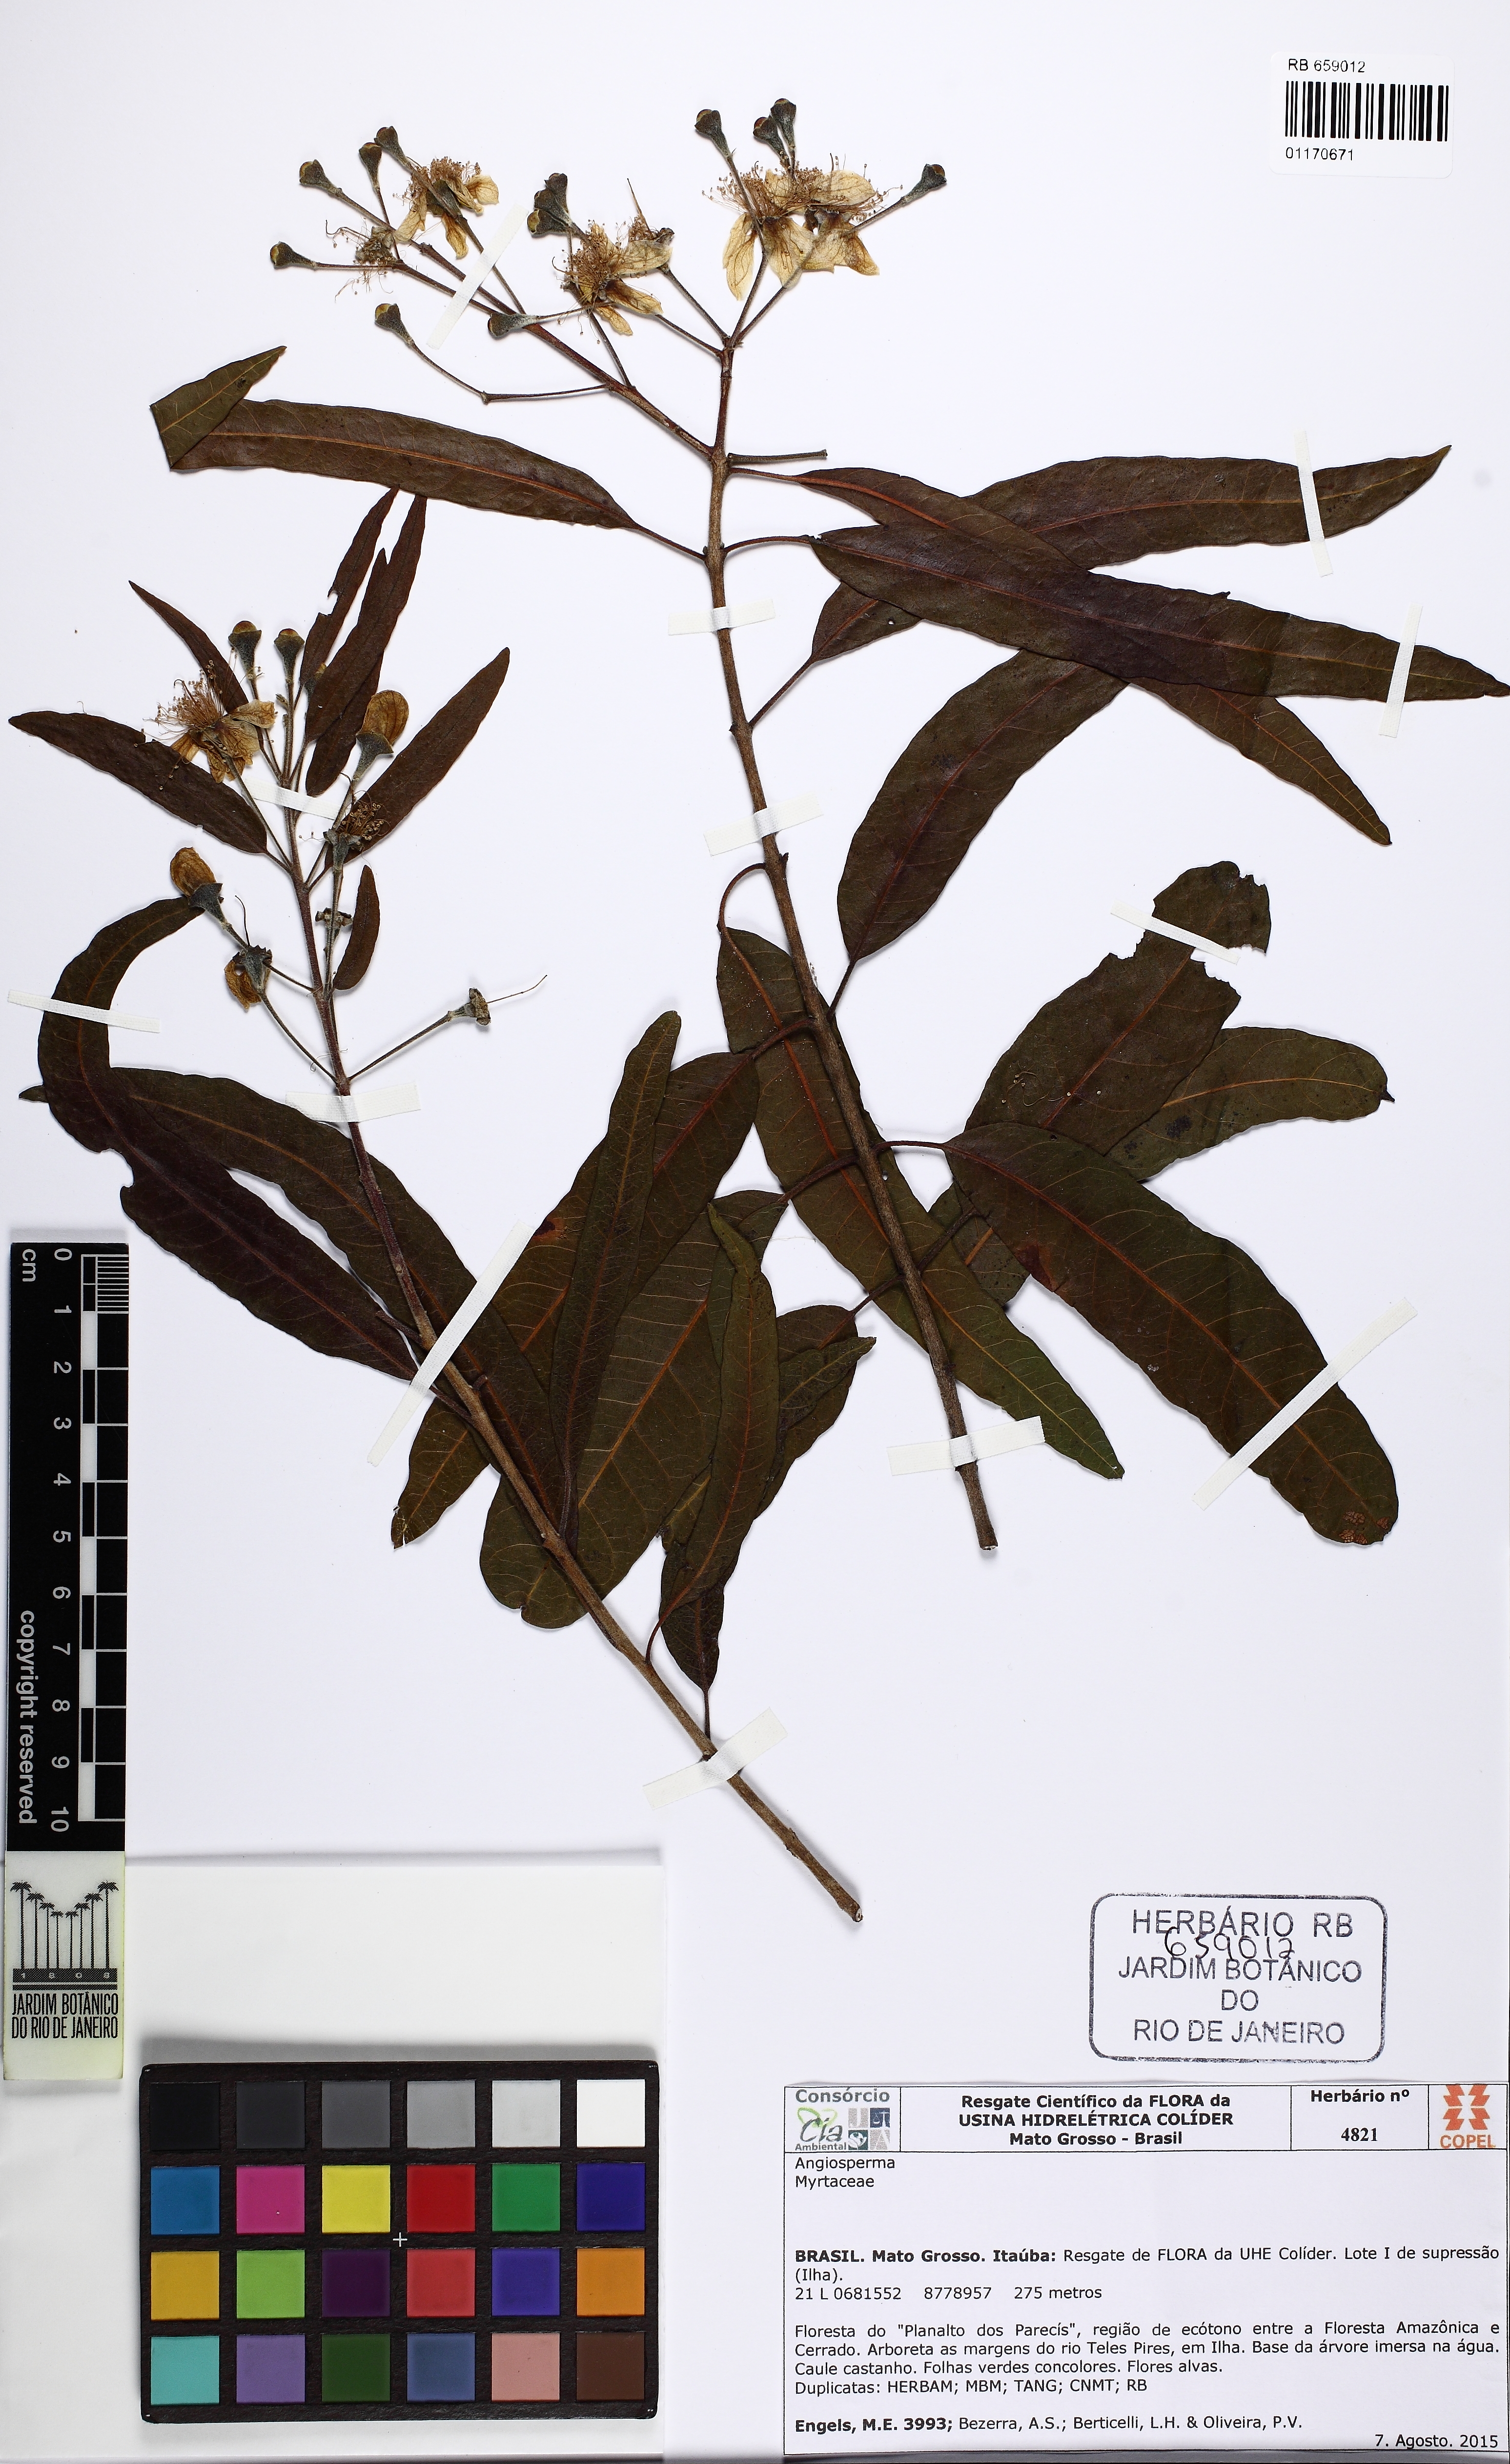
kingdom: Plantae
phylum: Tracheophyta
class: Magnoliopsida
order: Myrtales
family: Myrtaceae
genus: Psidium
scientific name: Psidium riparium
